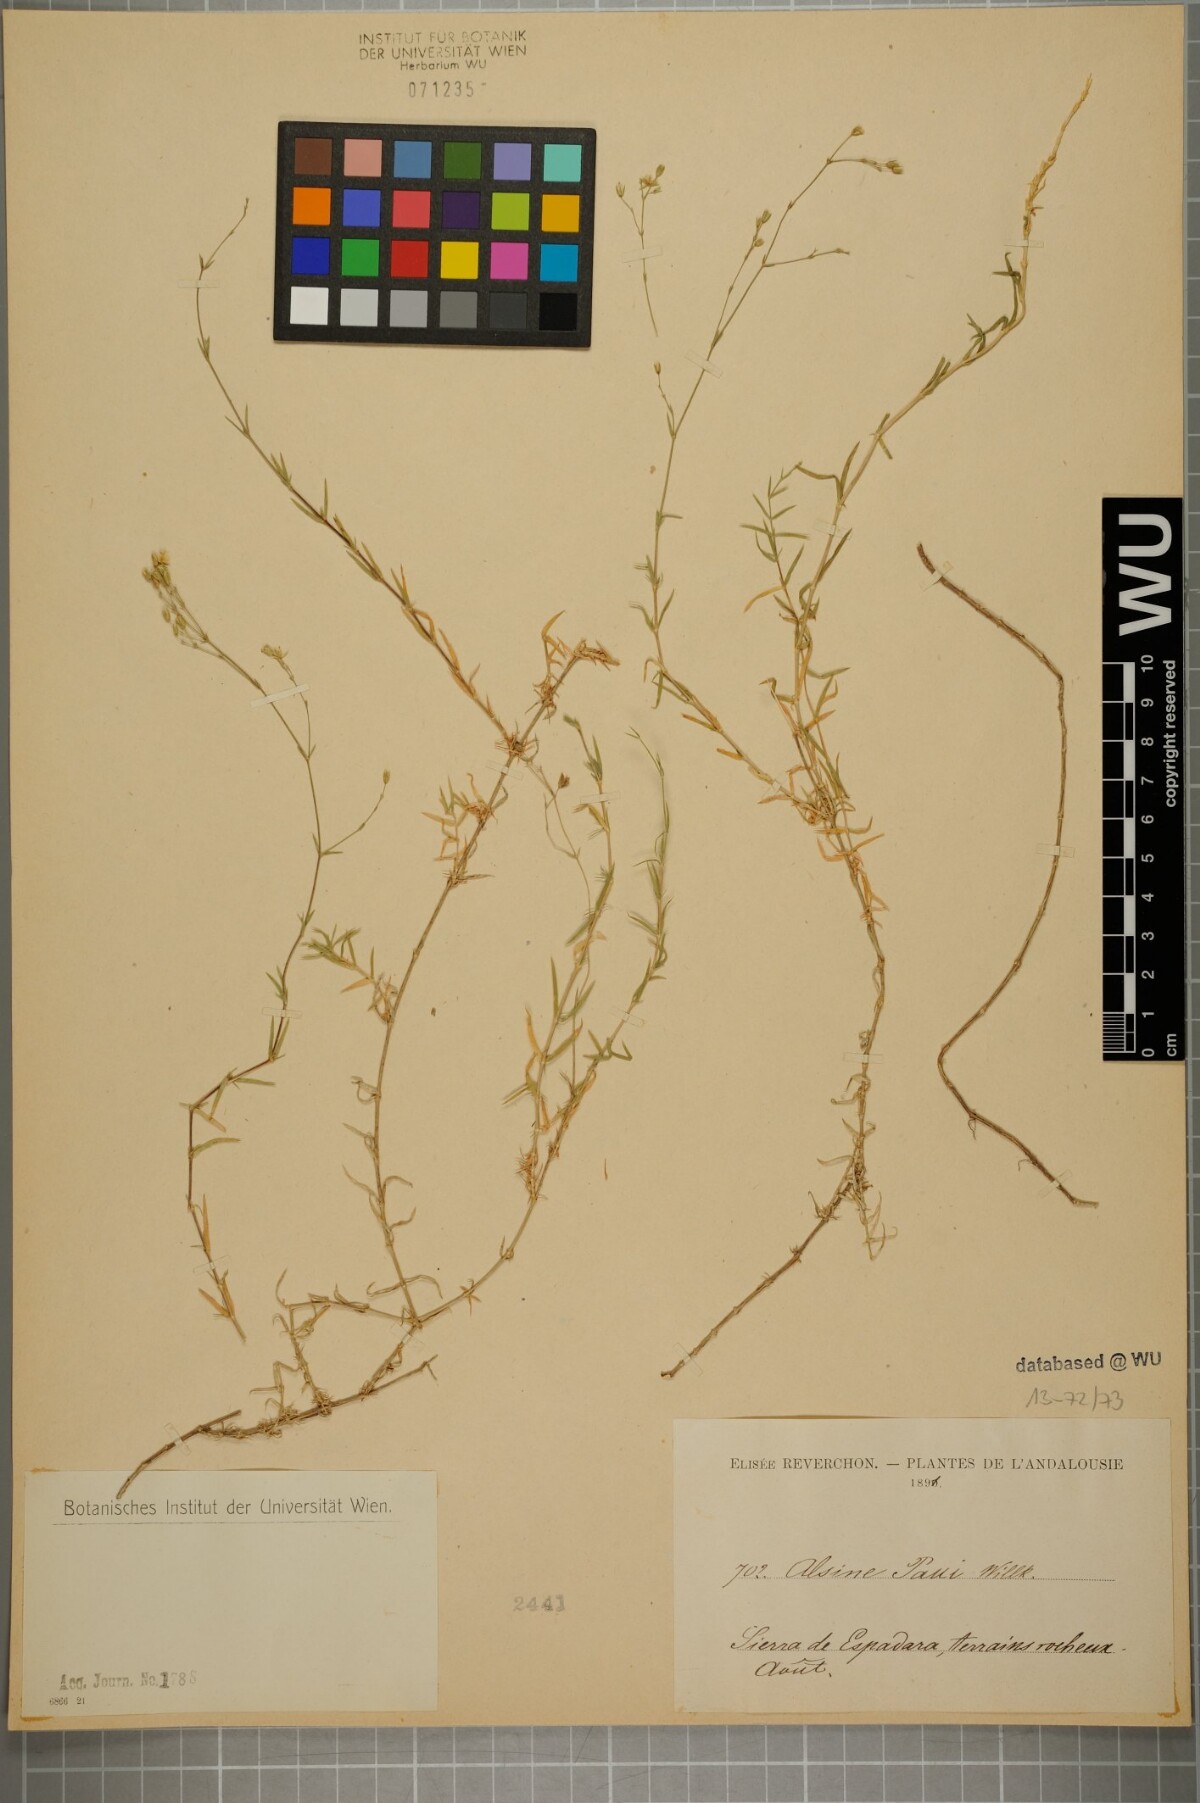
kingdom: Plantae
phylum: Tracheophyta
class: Magnoliopsida
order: Caryophyllales
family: Caryophyllaceae
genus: Facchinia
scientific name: Facchinia valentina
